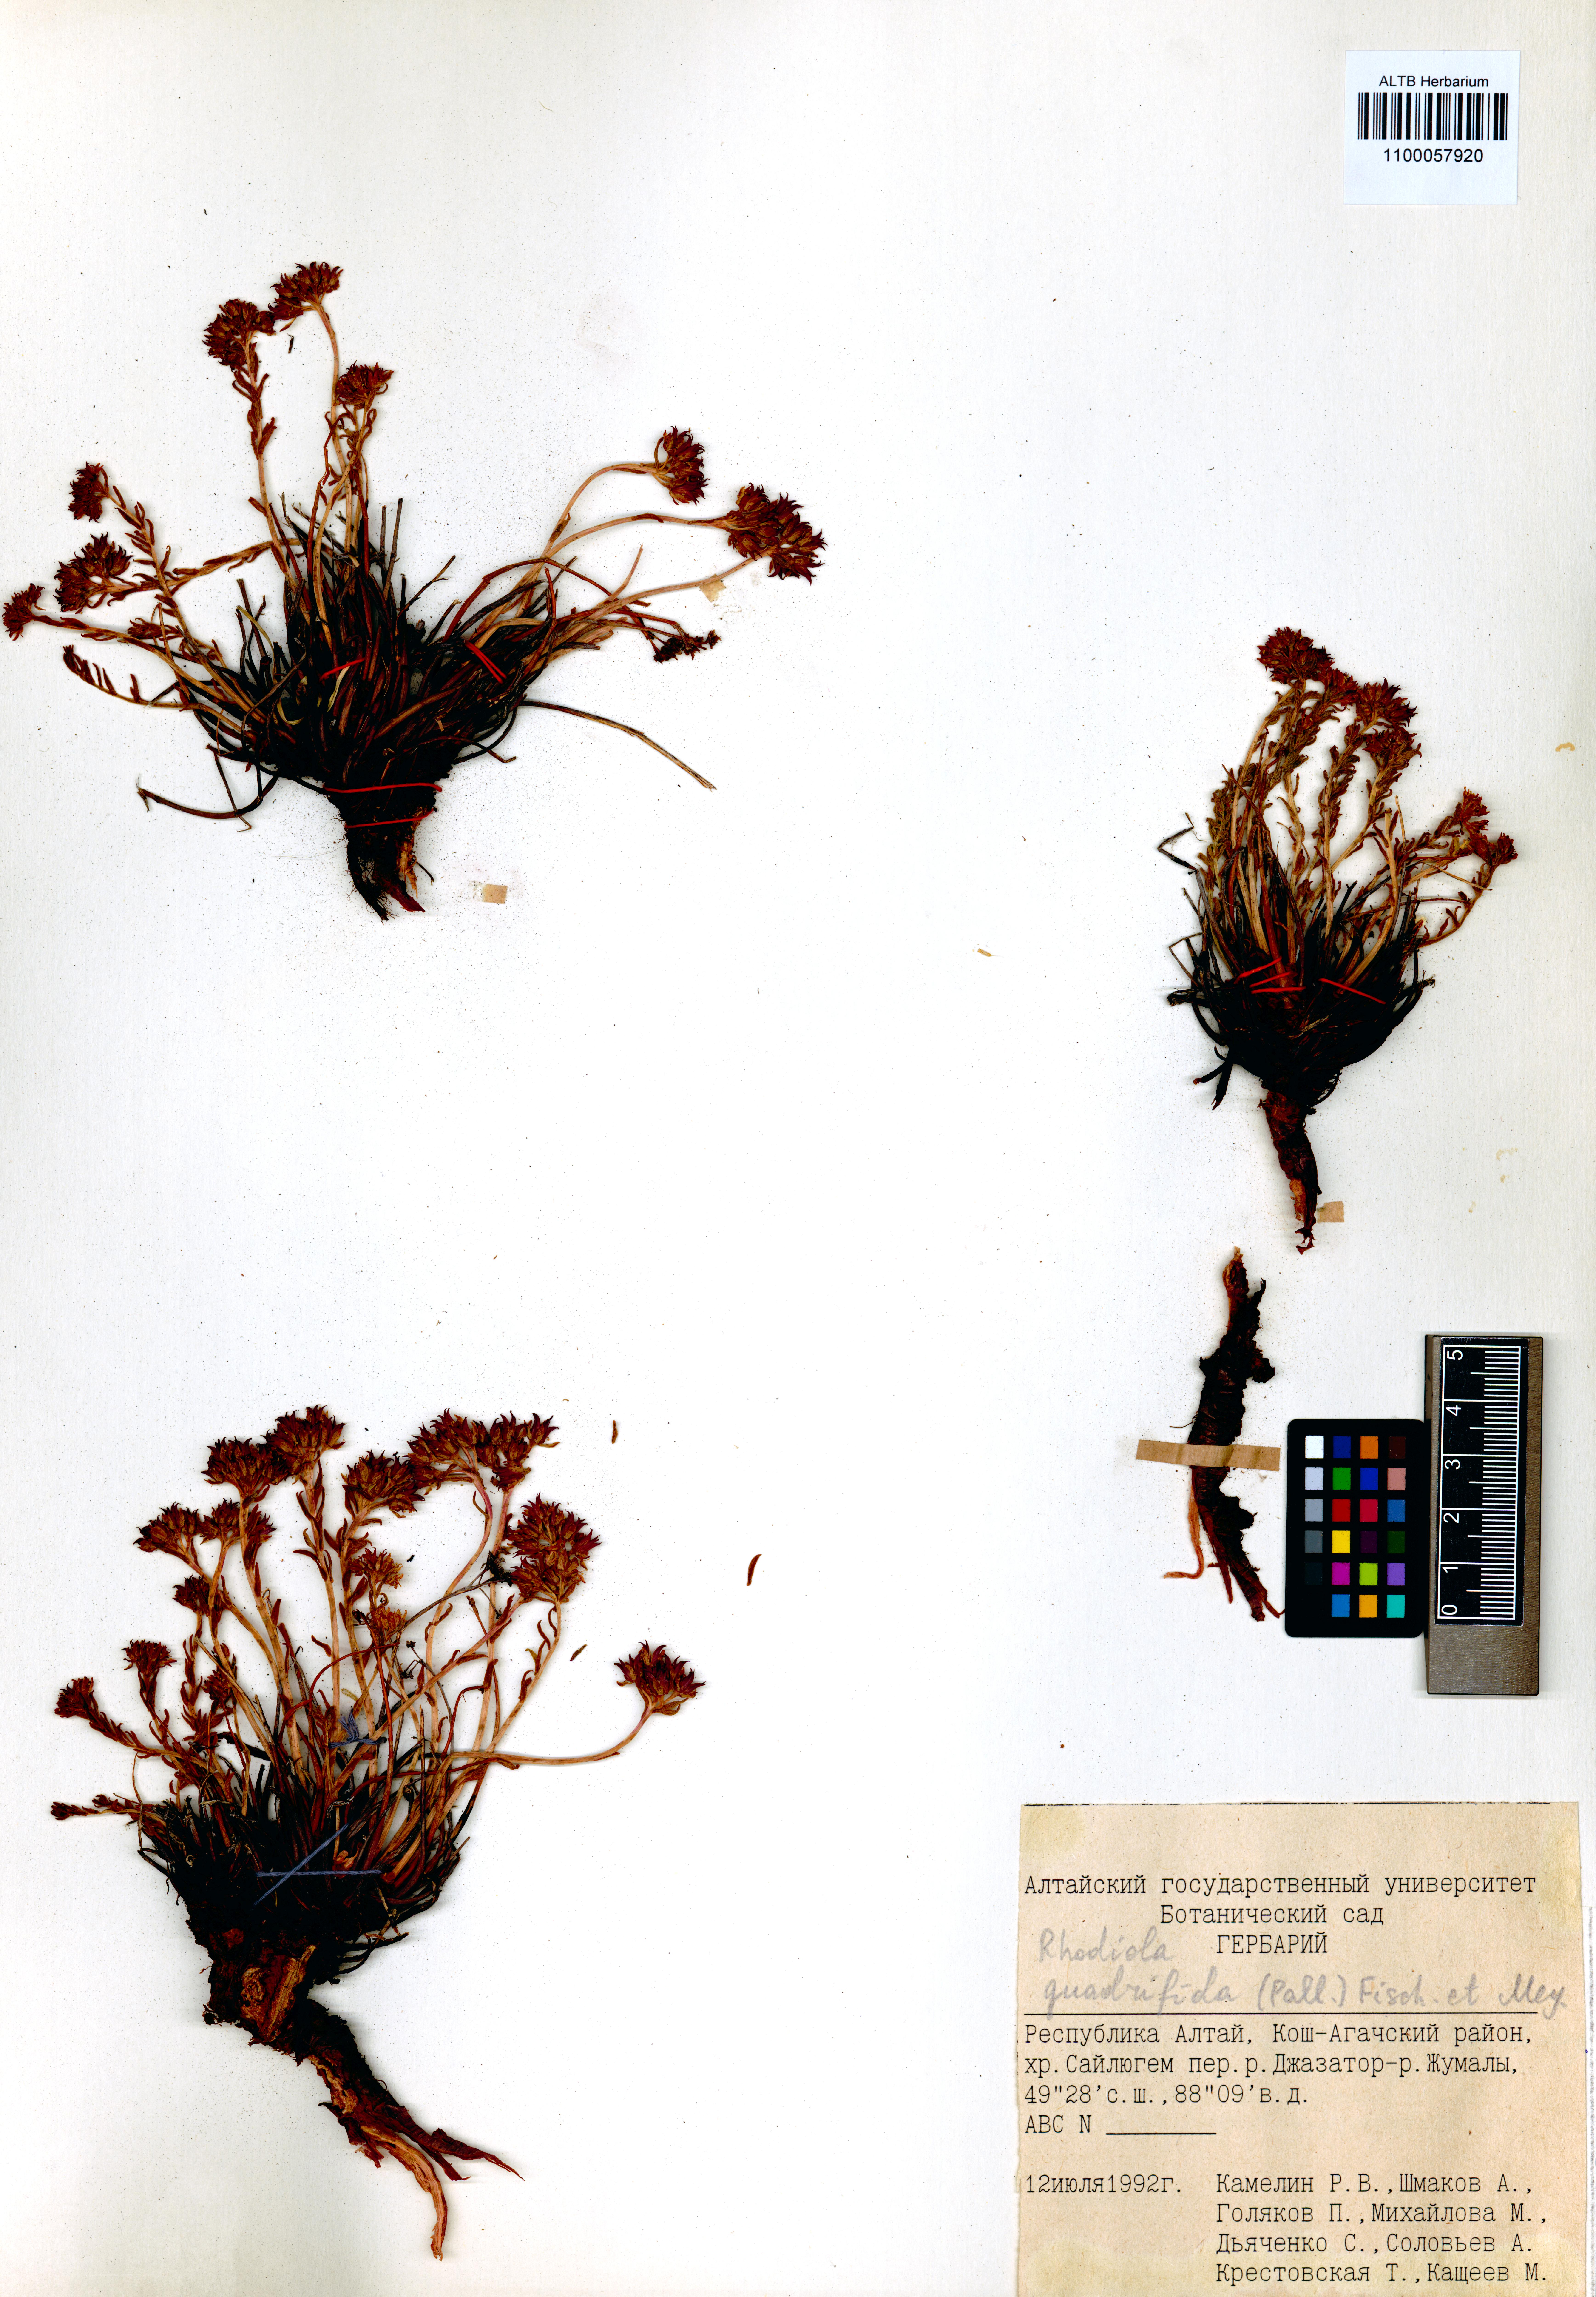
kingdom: Plantae
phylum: Tracheophyta
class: Magnoliopsida
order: Saxifragales
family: Crassulaceae
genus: Rhodiola
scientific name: Rhodiola quadrifida
